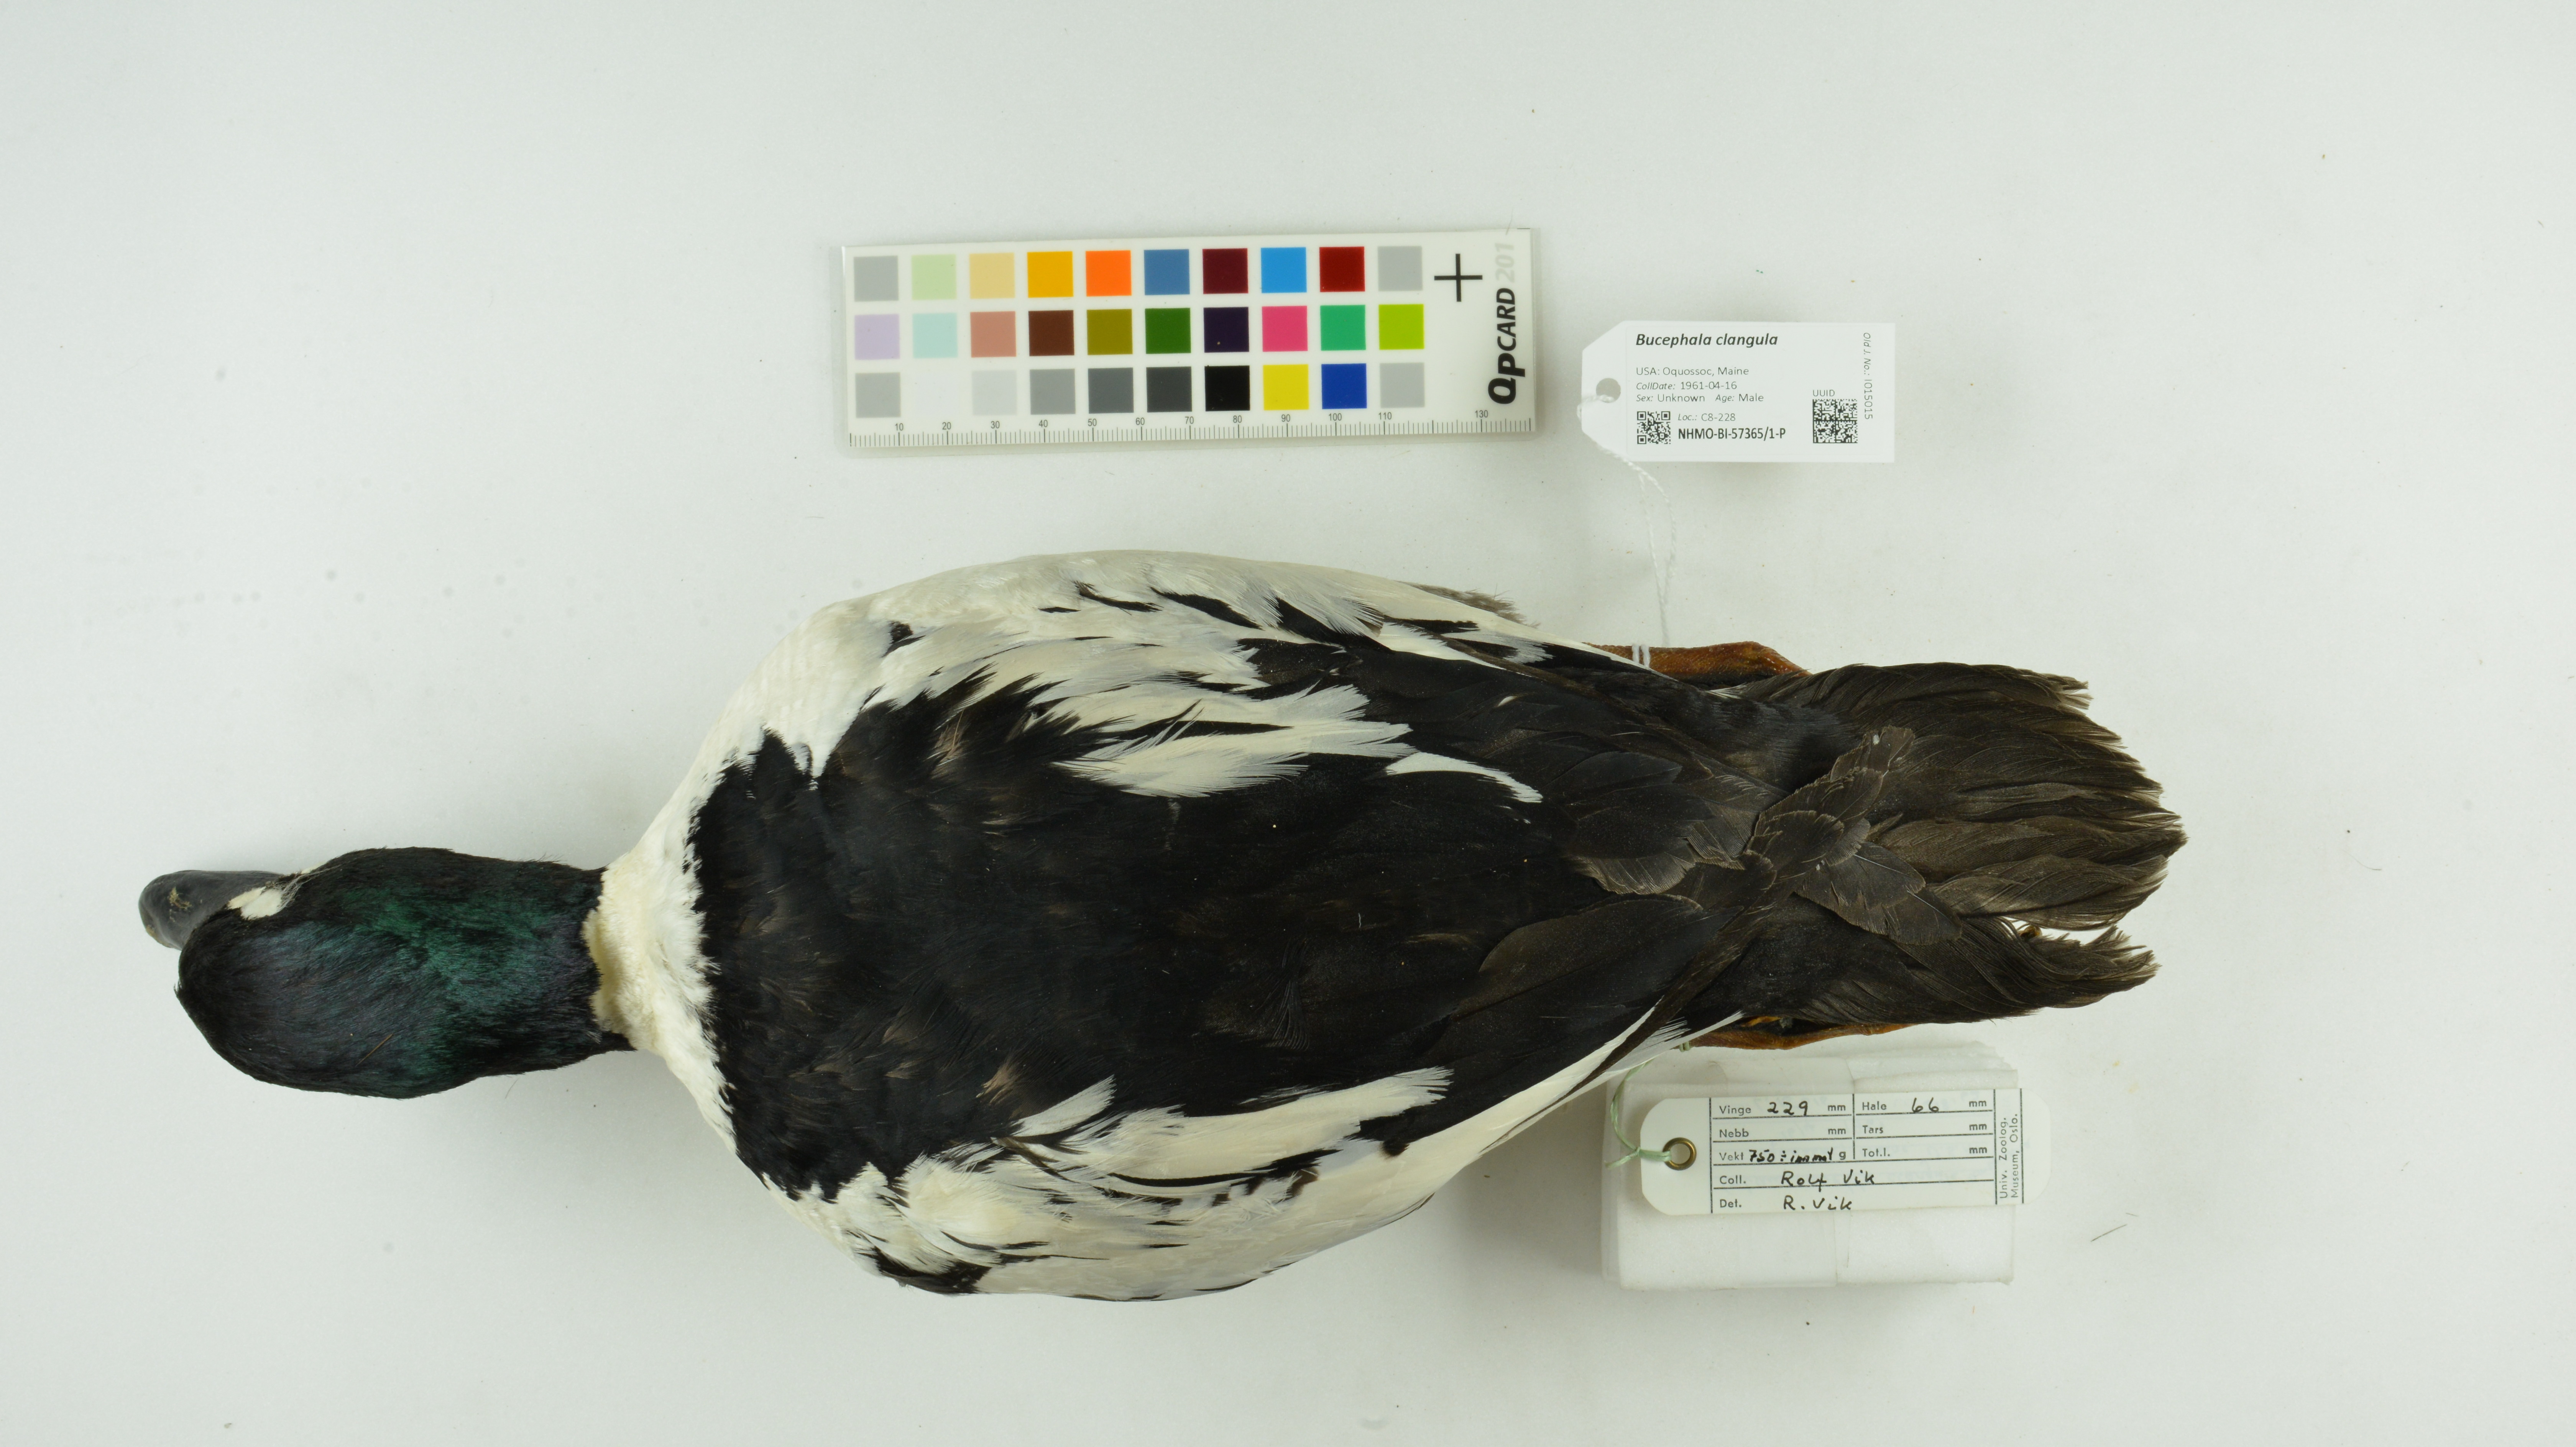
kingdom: Animalia
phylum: Chordata
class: Aves
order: Anseriformes
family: Anatidae
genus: Bucephala
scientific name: Bucephala clangula
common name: Common goldeneye
